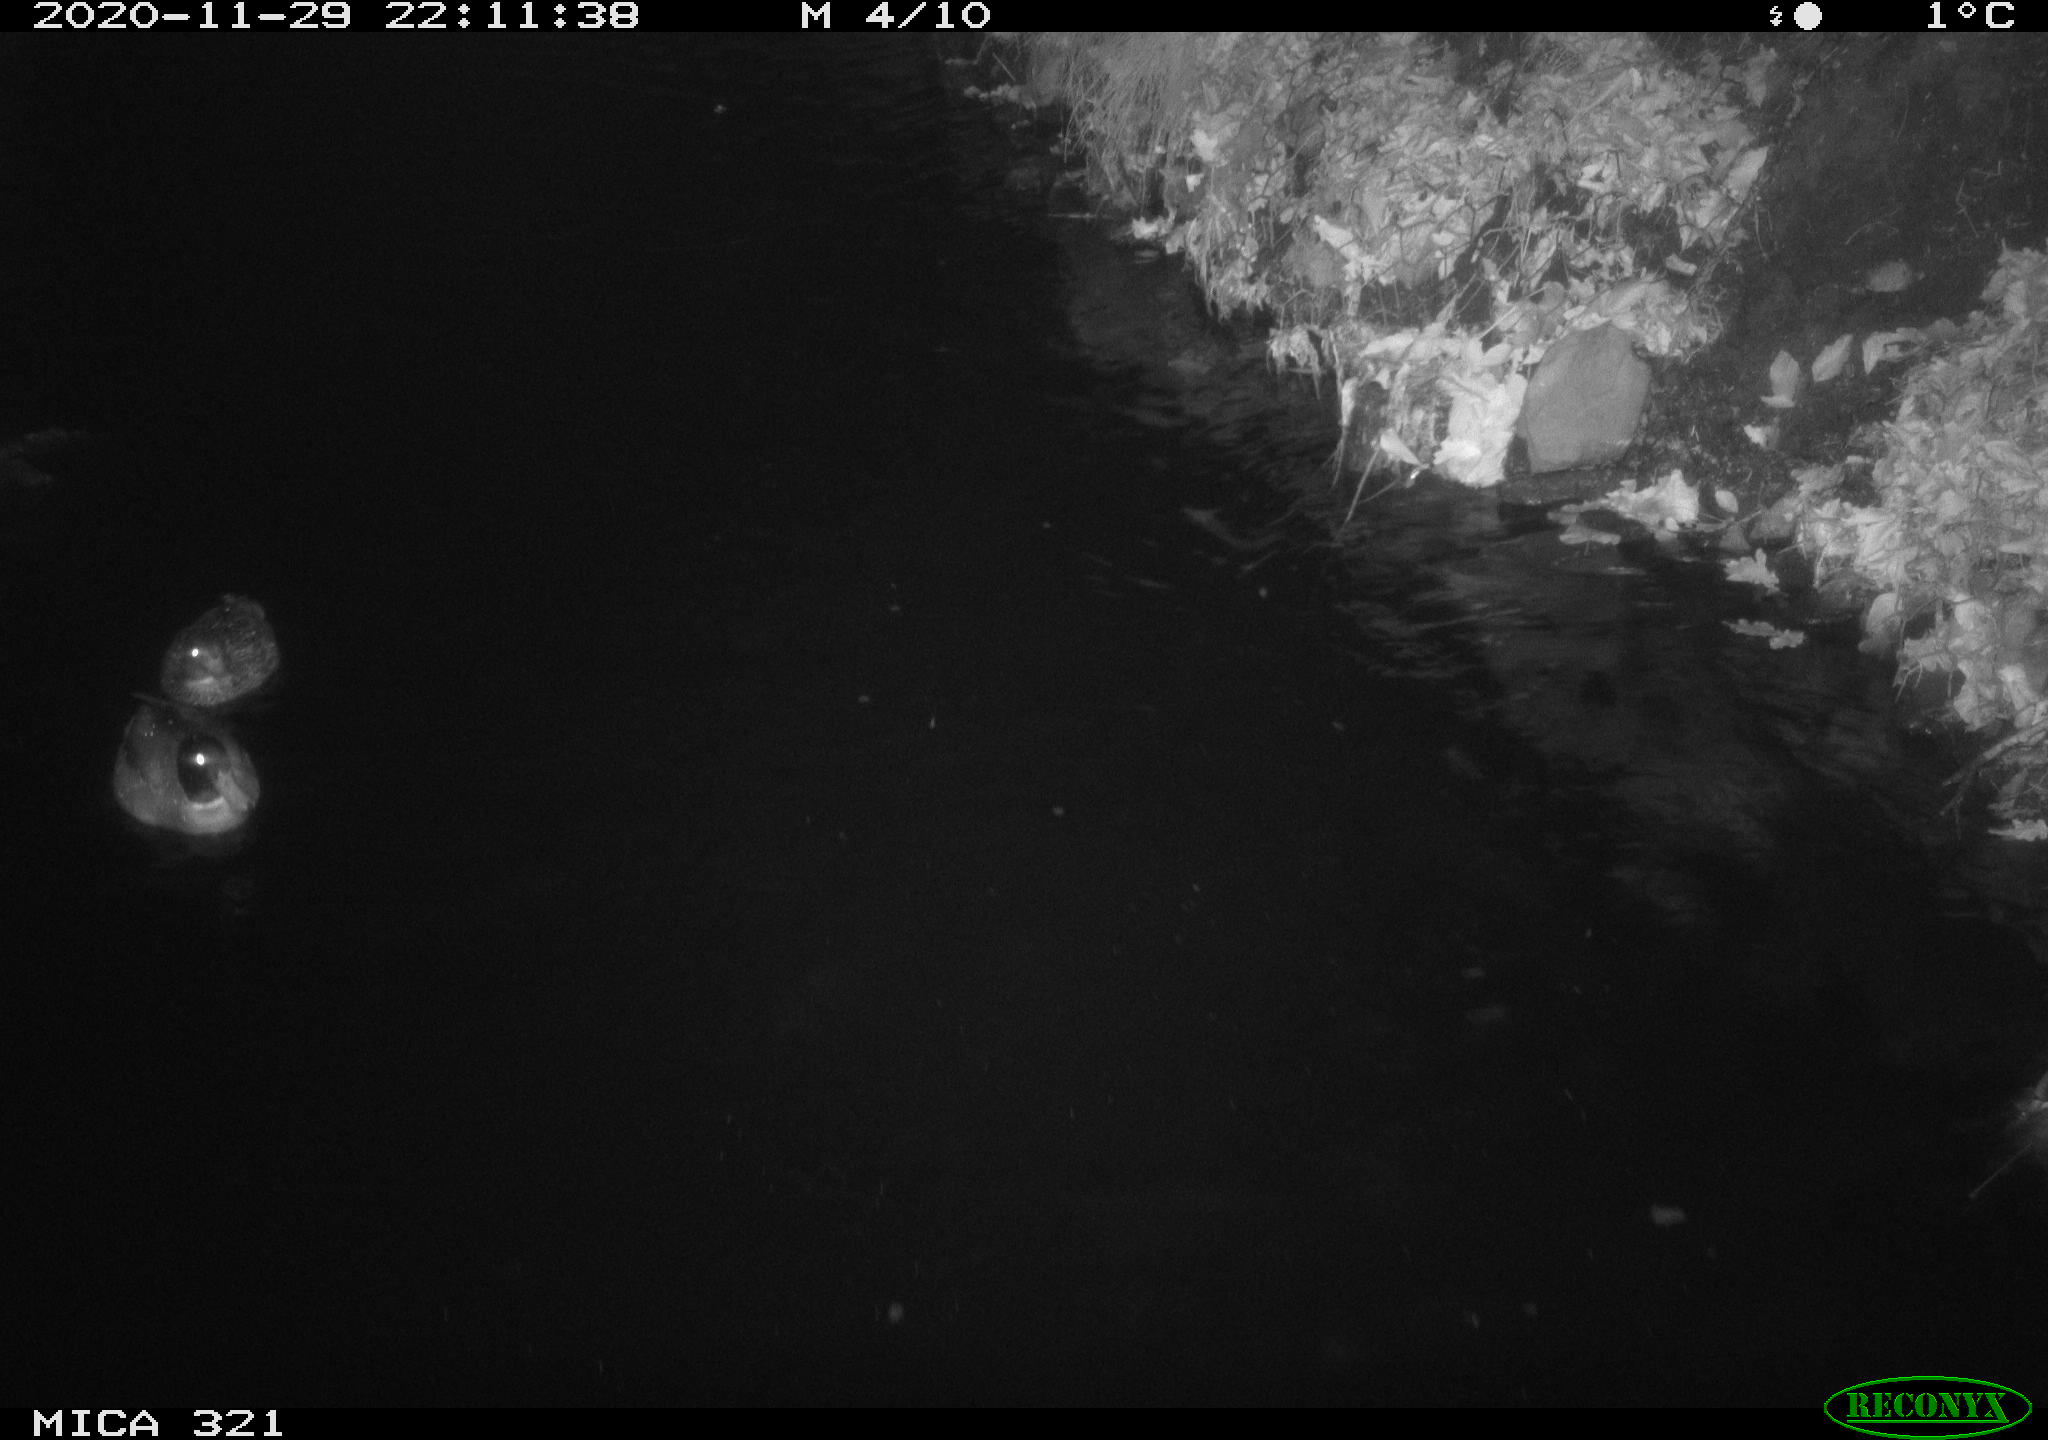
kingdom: Animalia
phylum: Chordata
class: Aves
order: Anseriformes
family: Anatidae
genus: Anas
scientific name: Anas platyrhynchos
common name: Mallard
